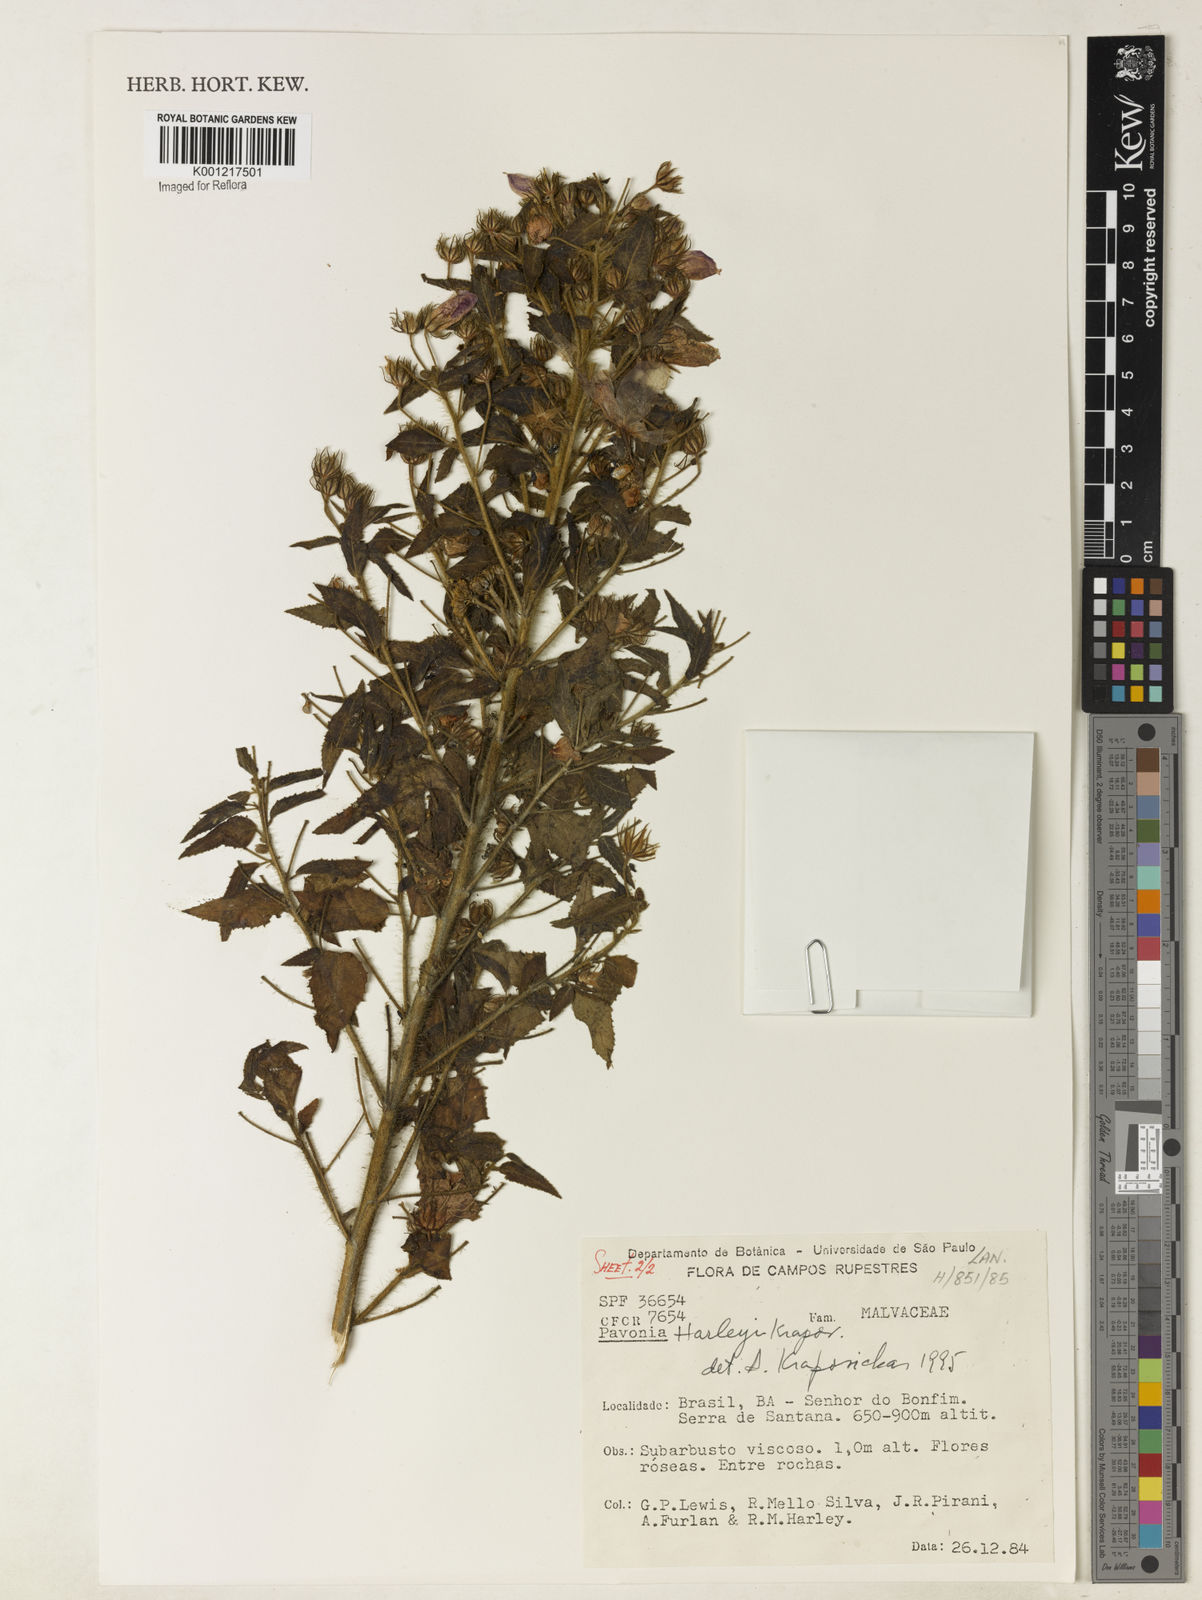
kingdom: Plantae
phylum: Tracheophyta
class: Magnoliopsida
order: Malvales
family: Malvaceae
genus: Pavonia
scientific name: Pavonia harleyi
